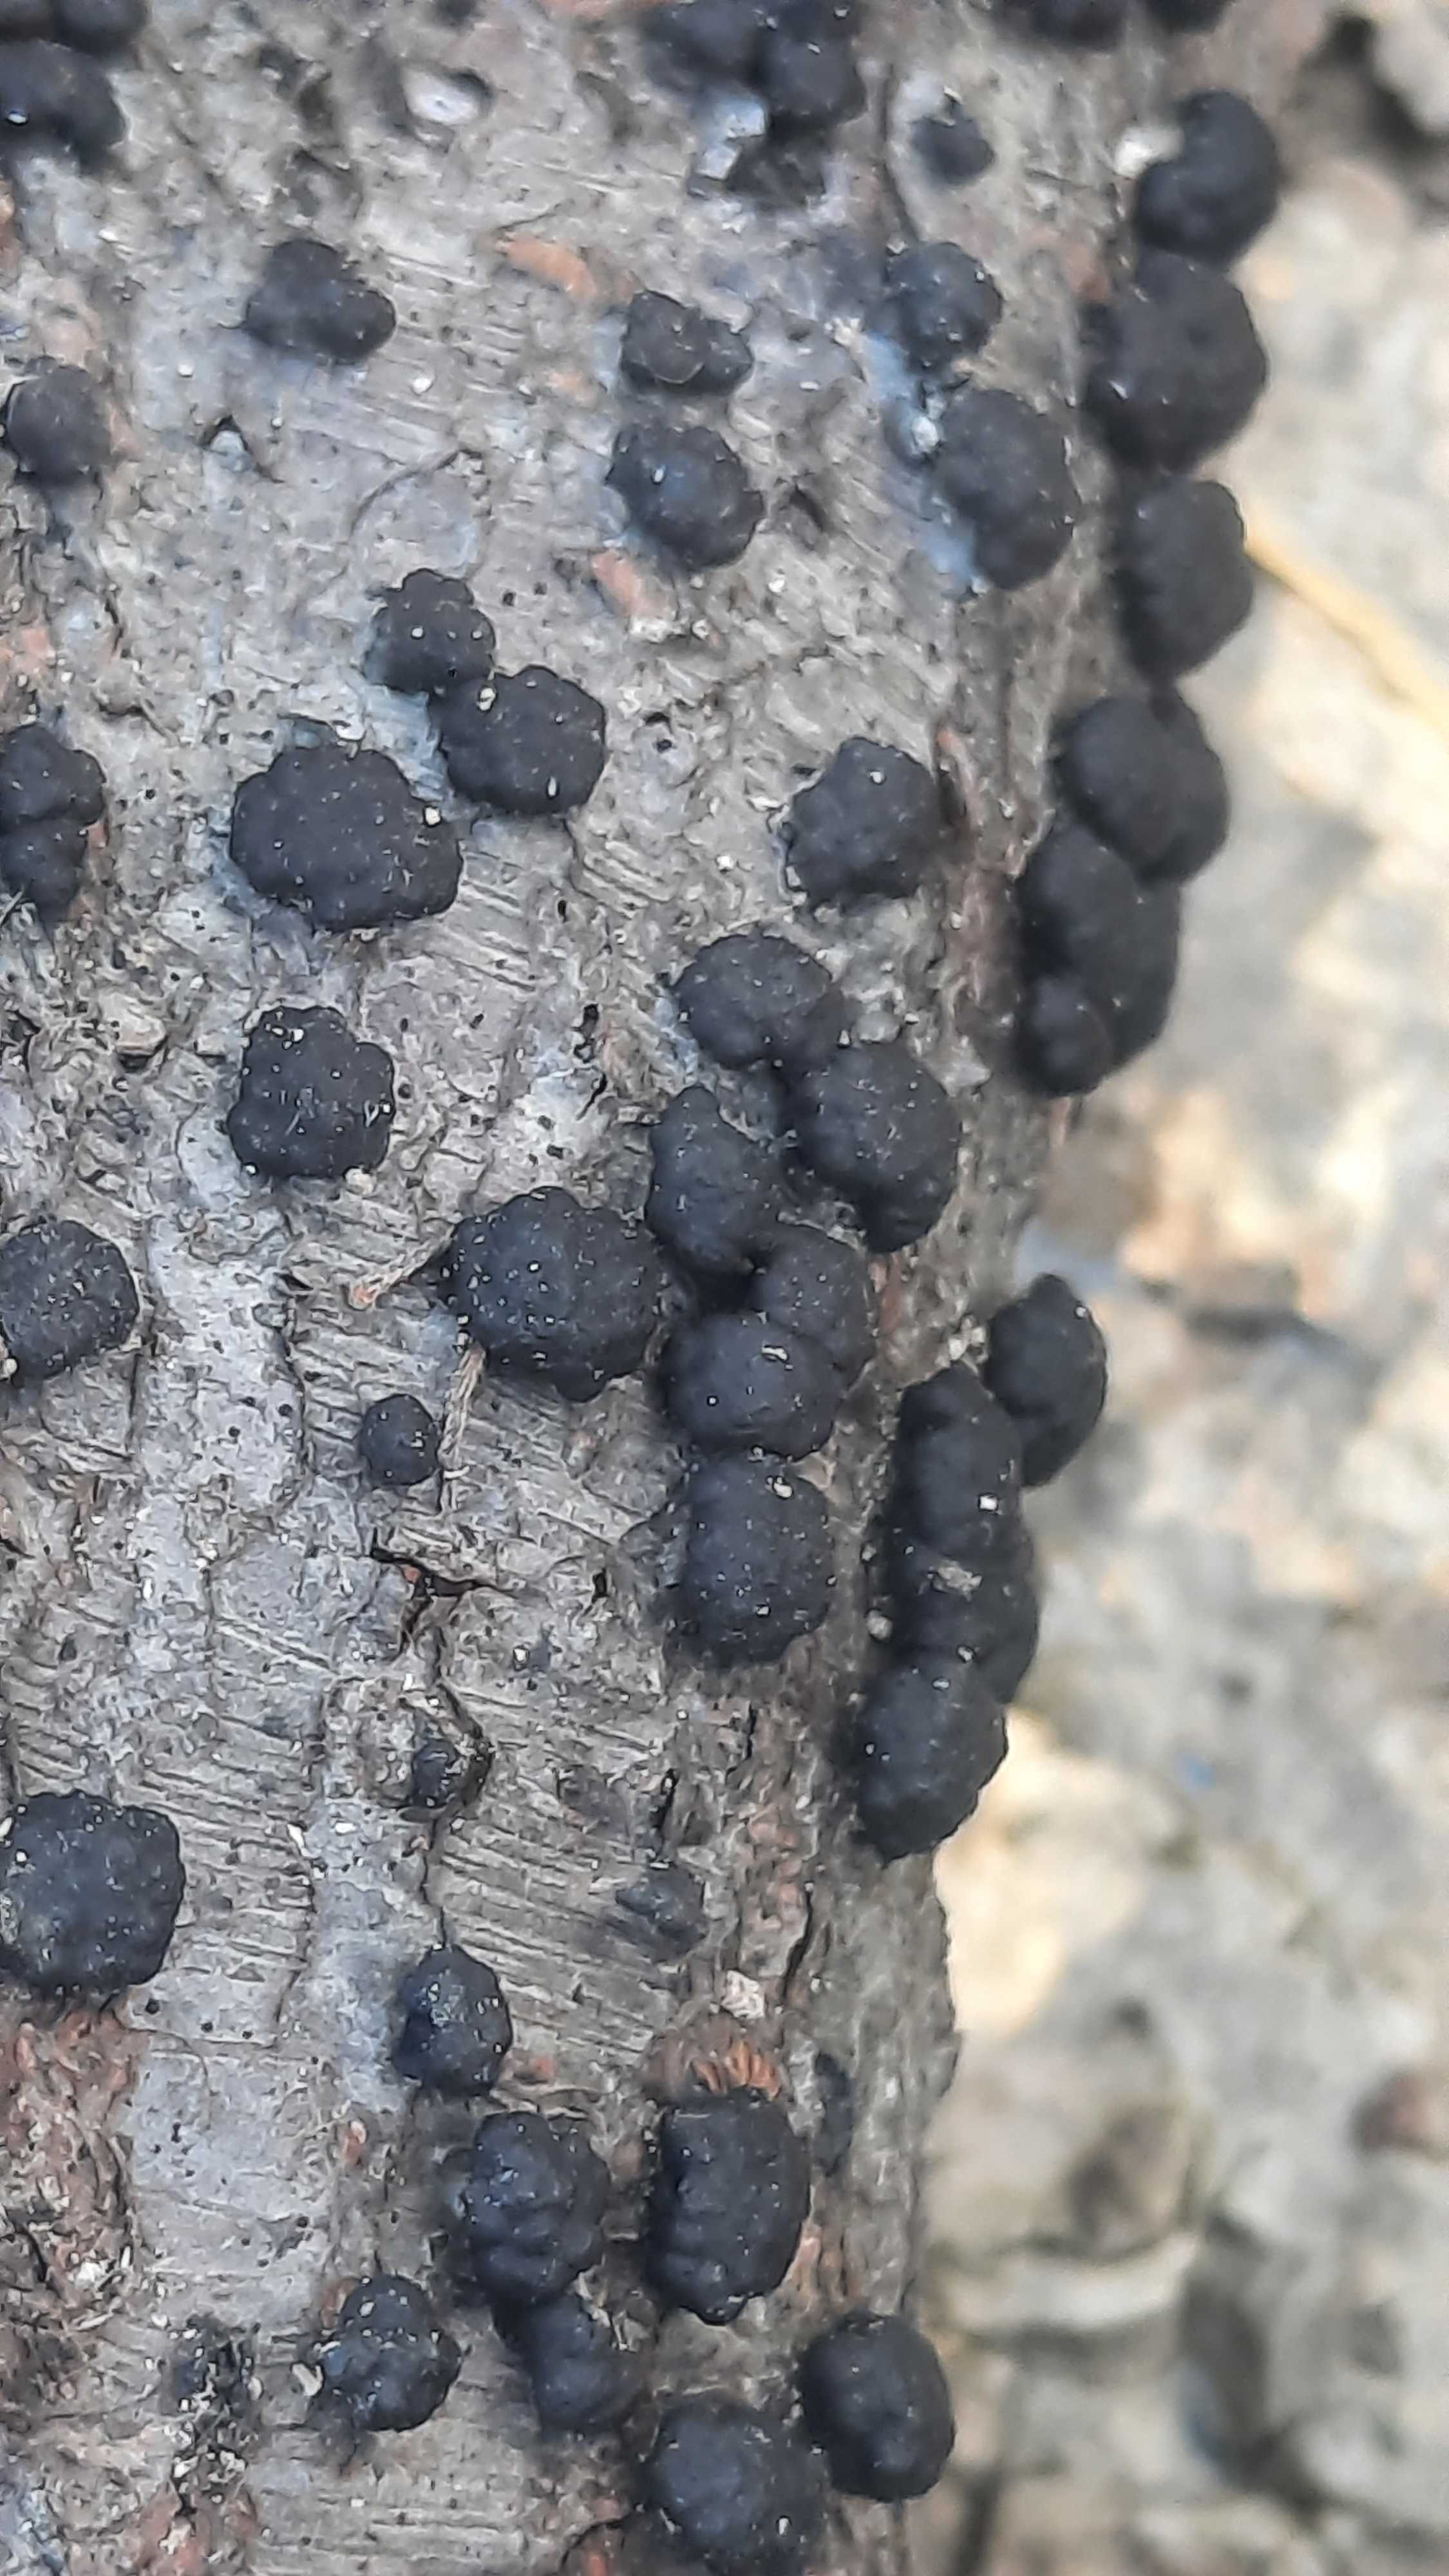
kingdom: Fungi
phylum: Ascomycota
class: Sordariomycetes
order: Xylariales
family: Hypoxylaceae
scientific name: Hypoxylaceae
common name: kulbærfamilien
